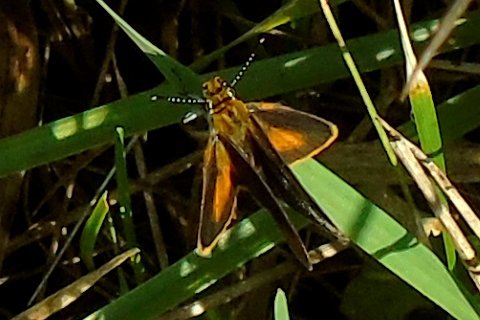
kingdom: Animalia
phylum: Arthropoda
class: Insecta
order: Lepidoptera
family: Hesperiidae
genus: Ancyloxypha
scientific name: Ancyloxypha numitor
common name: Least Skipper
